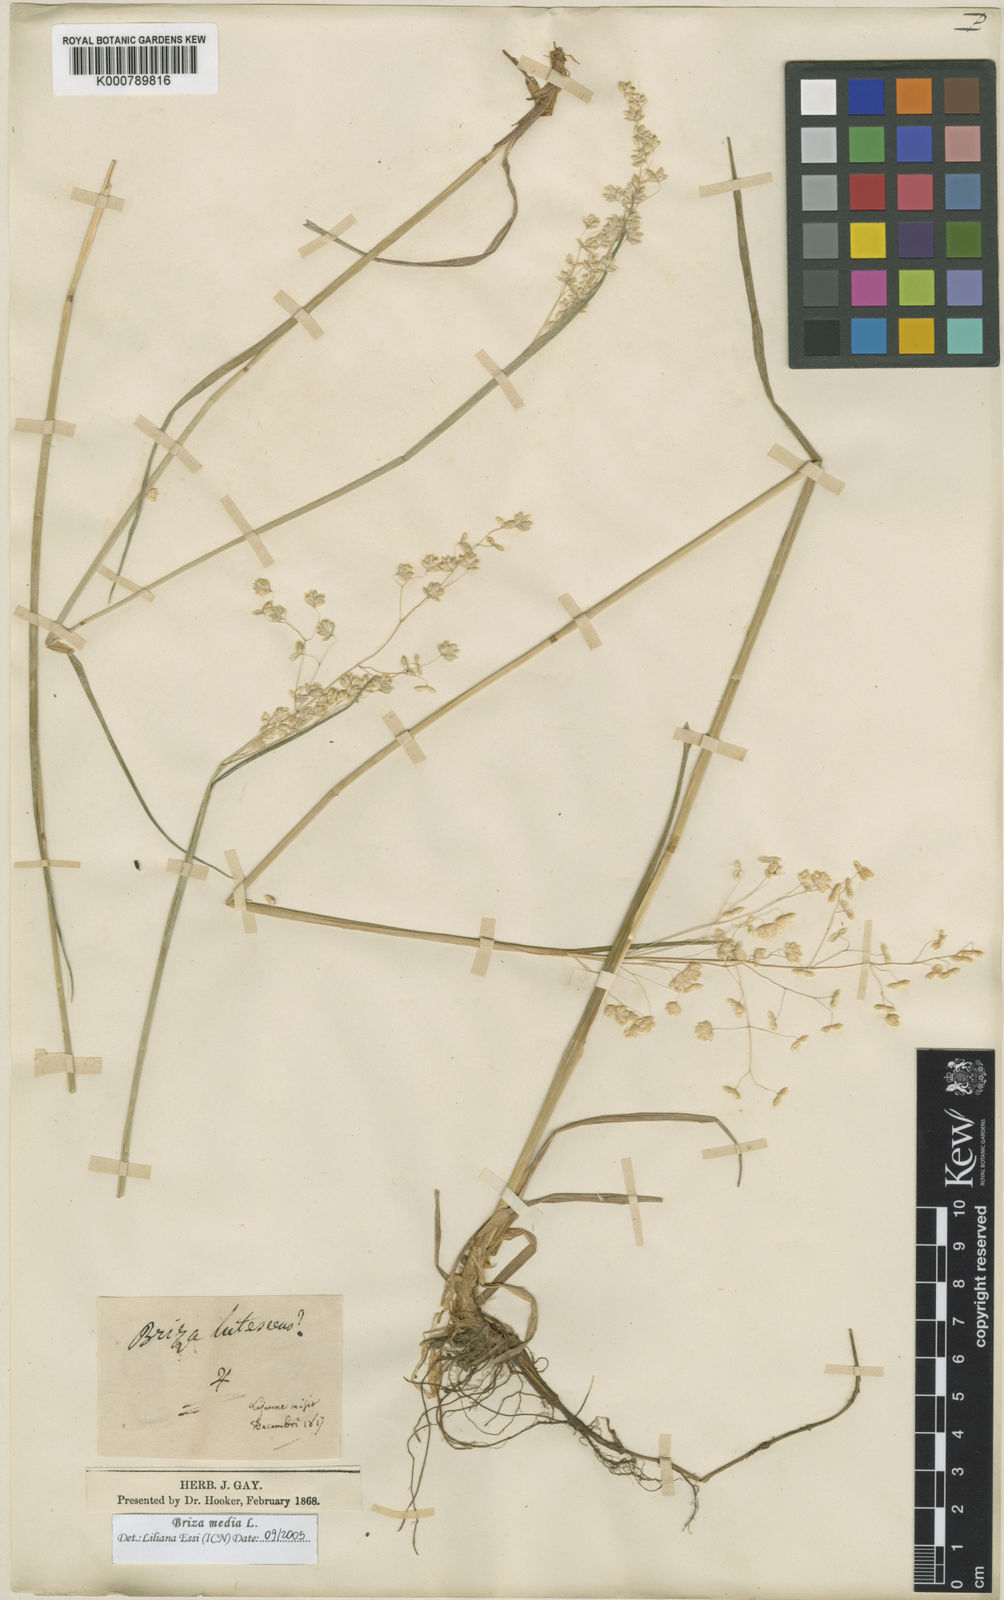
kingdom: Plantae
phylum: Tracheophyta
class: Liliopsida
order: Poales
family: Poaceae
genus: Briza
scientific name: Briza media
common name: Quaking grass
